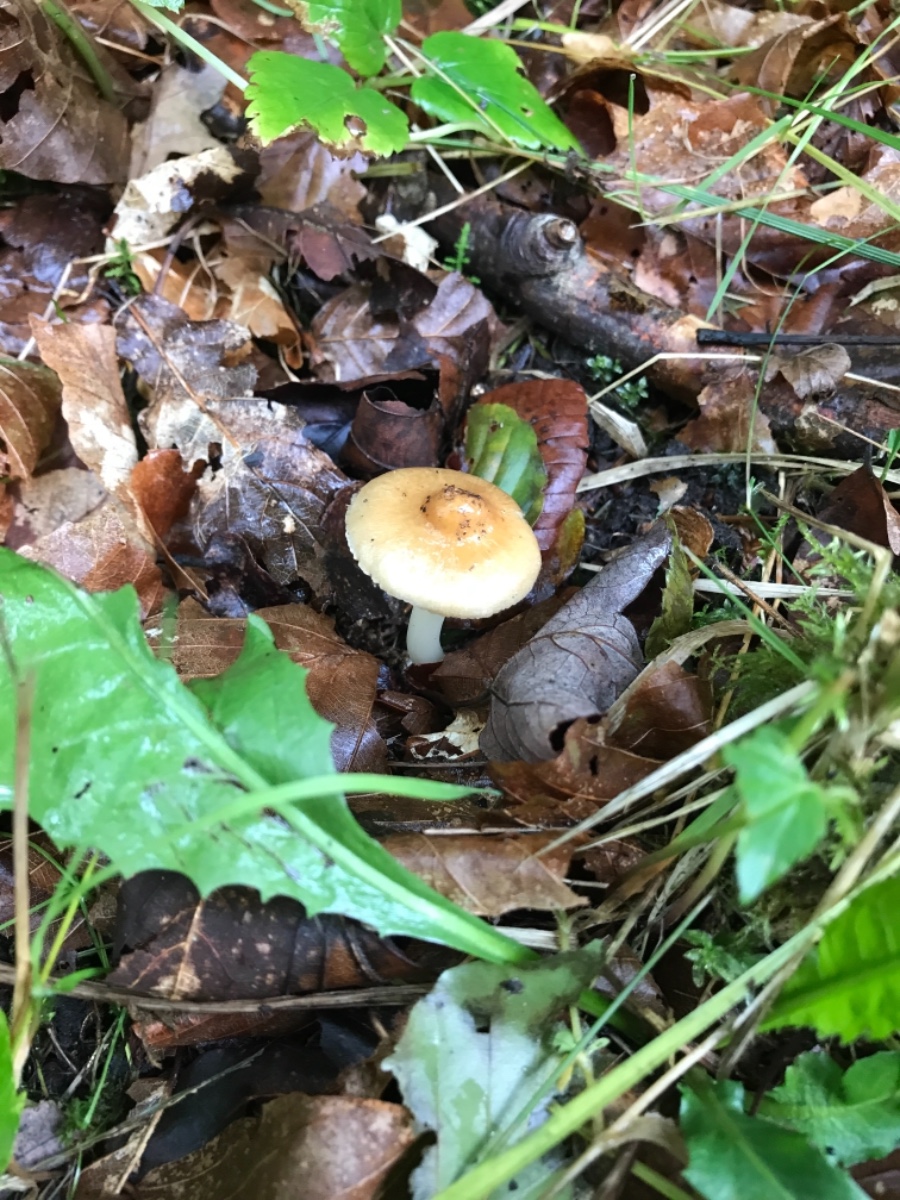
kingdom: Fungi
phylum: Basidiomycota
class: Agaricomycetes
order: Agaricales
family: Inocybaceae
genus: Inocybe
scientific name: Inocybe
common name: trævlhat
